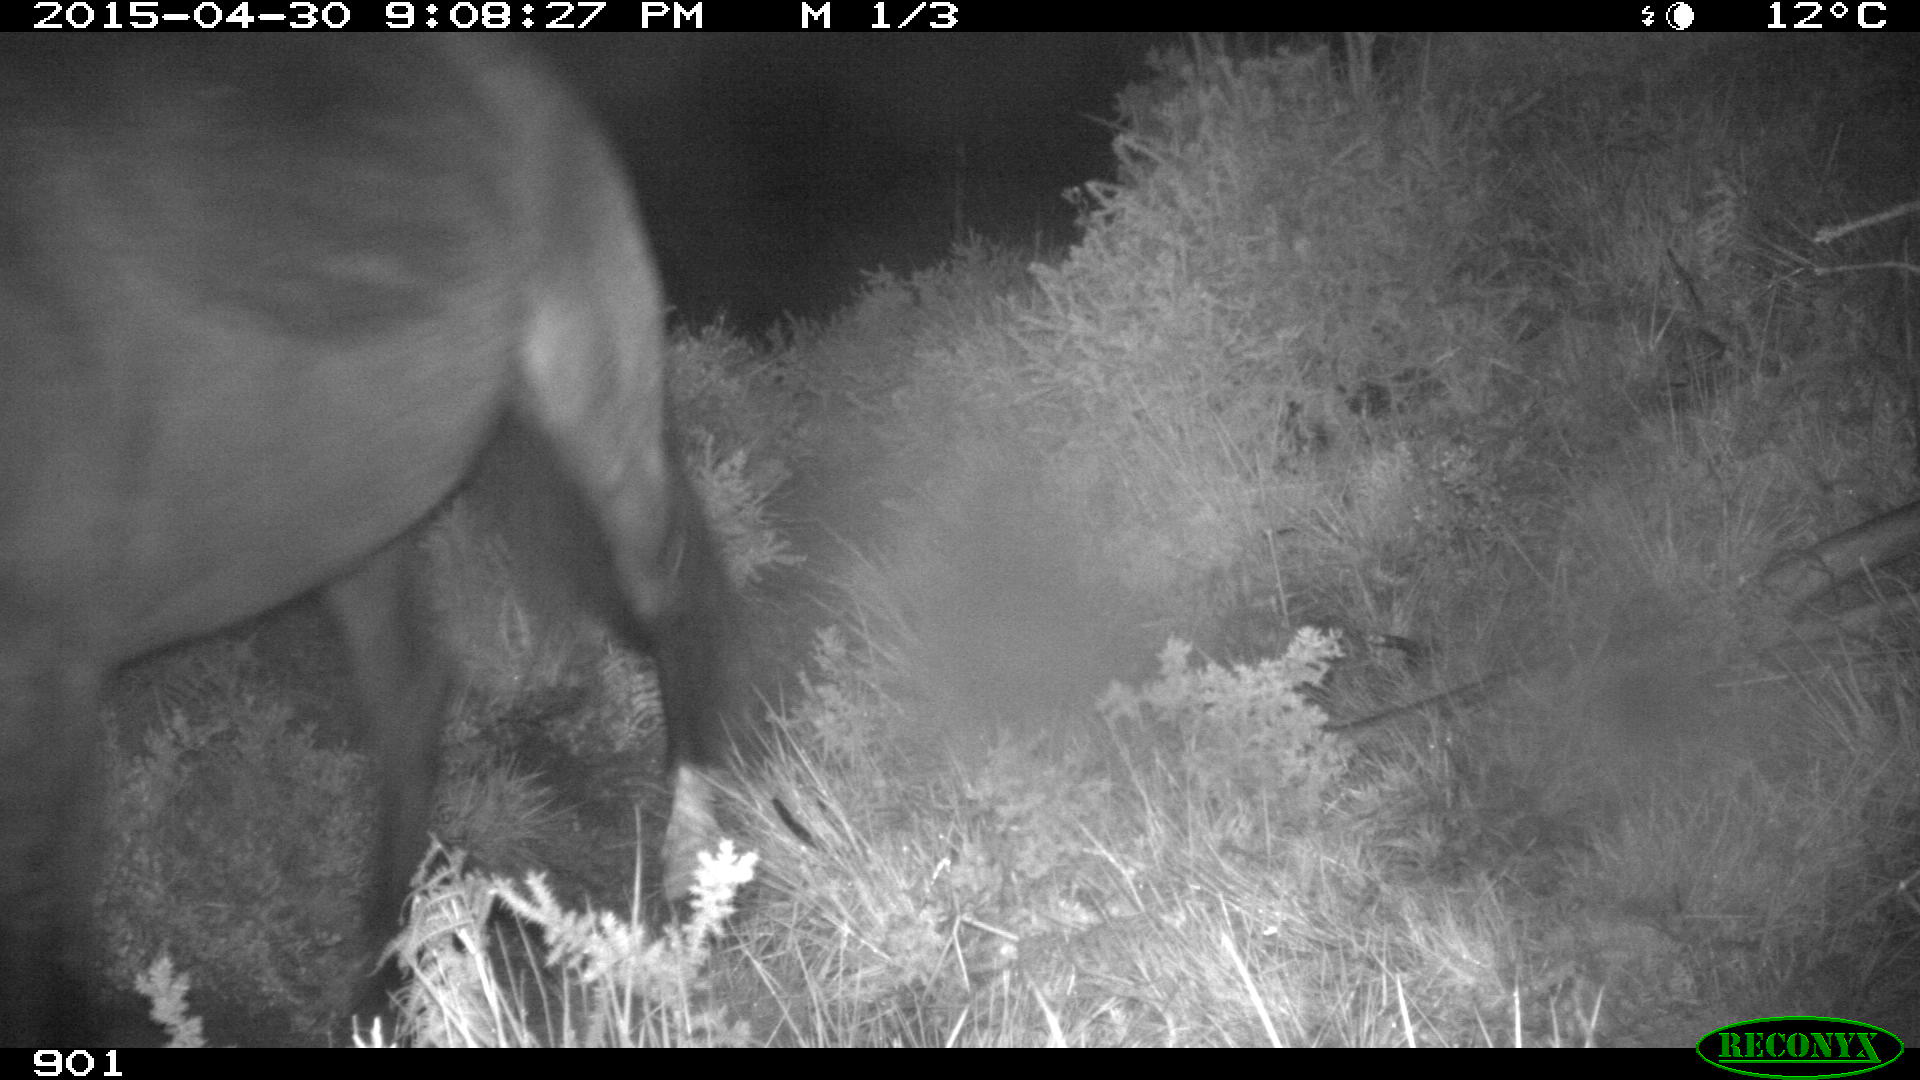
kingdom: Animalia
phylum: Chordata
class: Mammalia
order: Perissodactyla
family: Equidae
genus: Equus
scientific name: Equus caballus
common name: Horse
